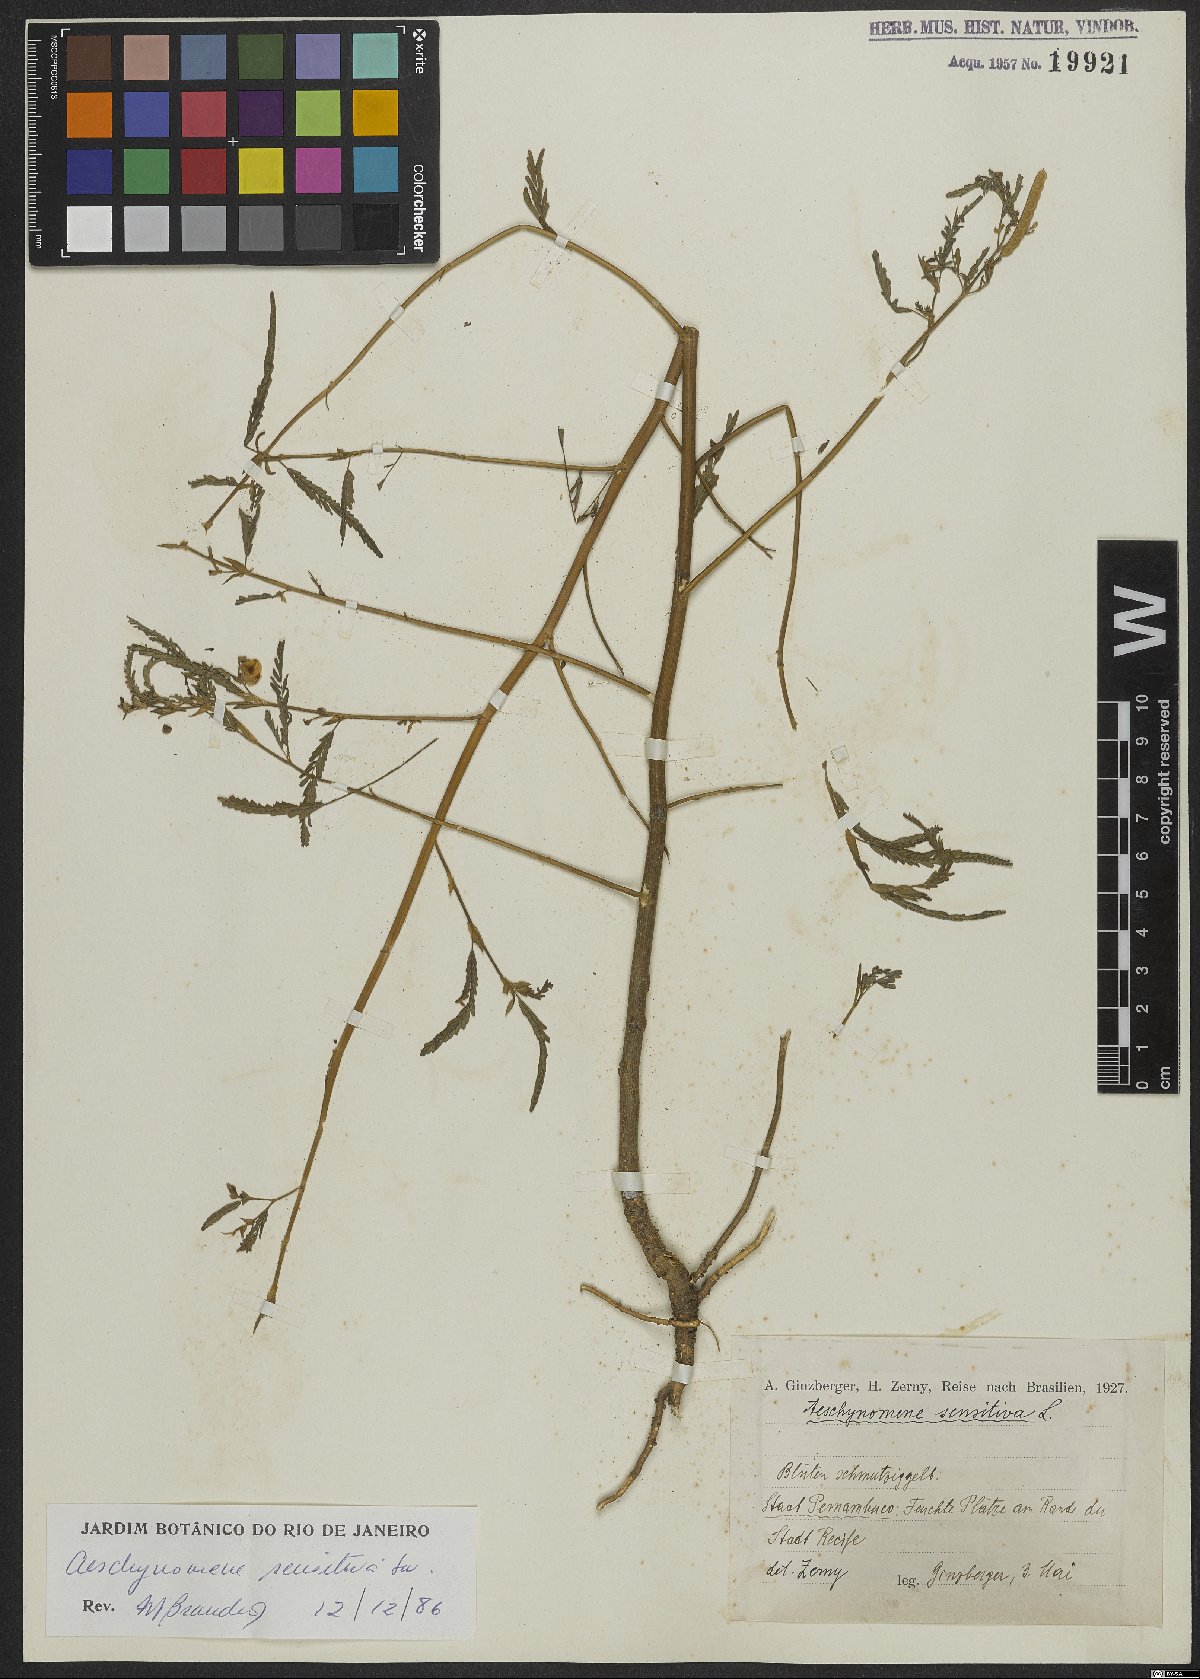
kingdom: Plantae
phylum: Tracheophyta
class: Magnoliopsida
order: Fabales
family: Fabaceae
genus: Aeschynomene
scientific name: Aeschynomene sensitiva
